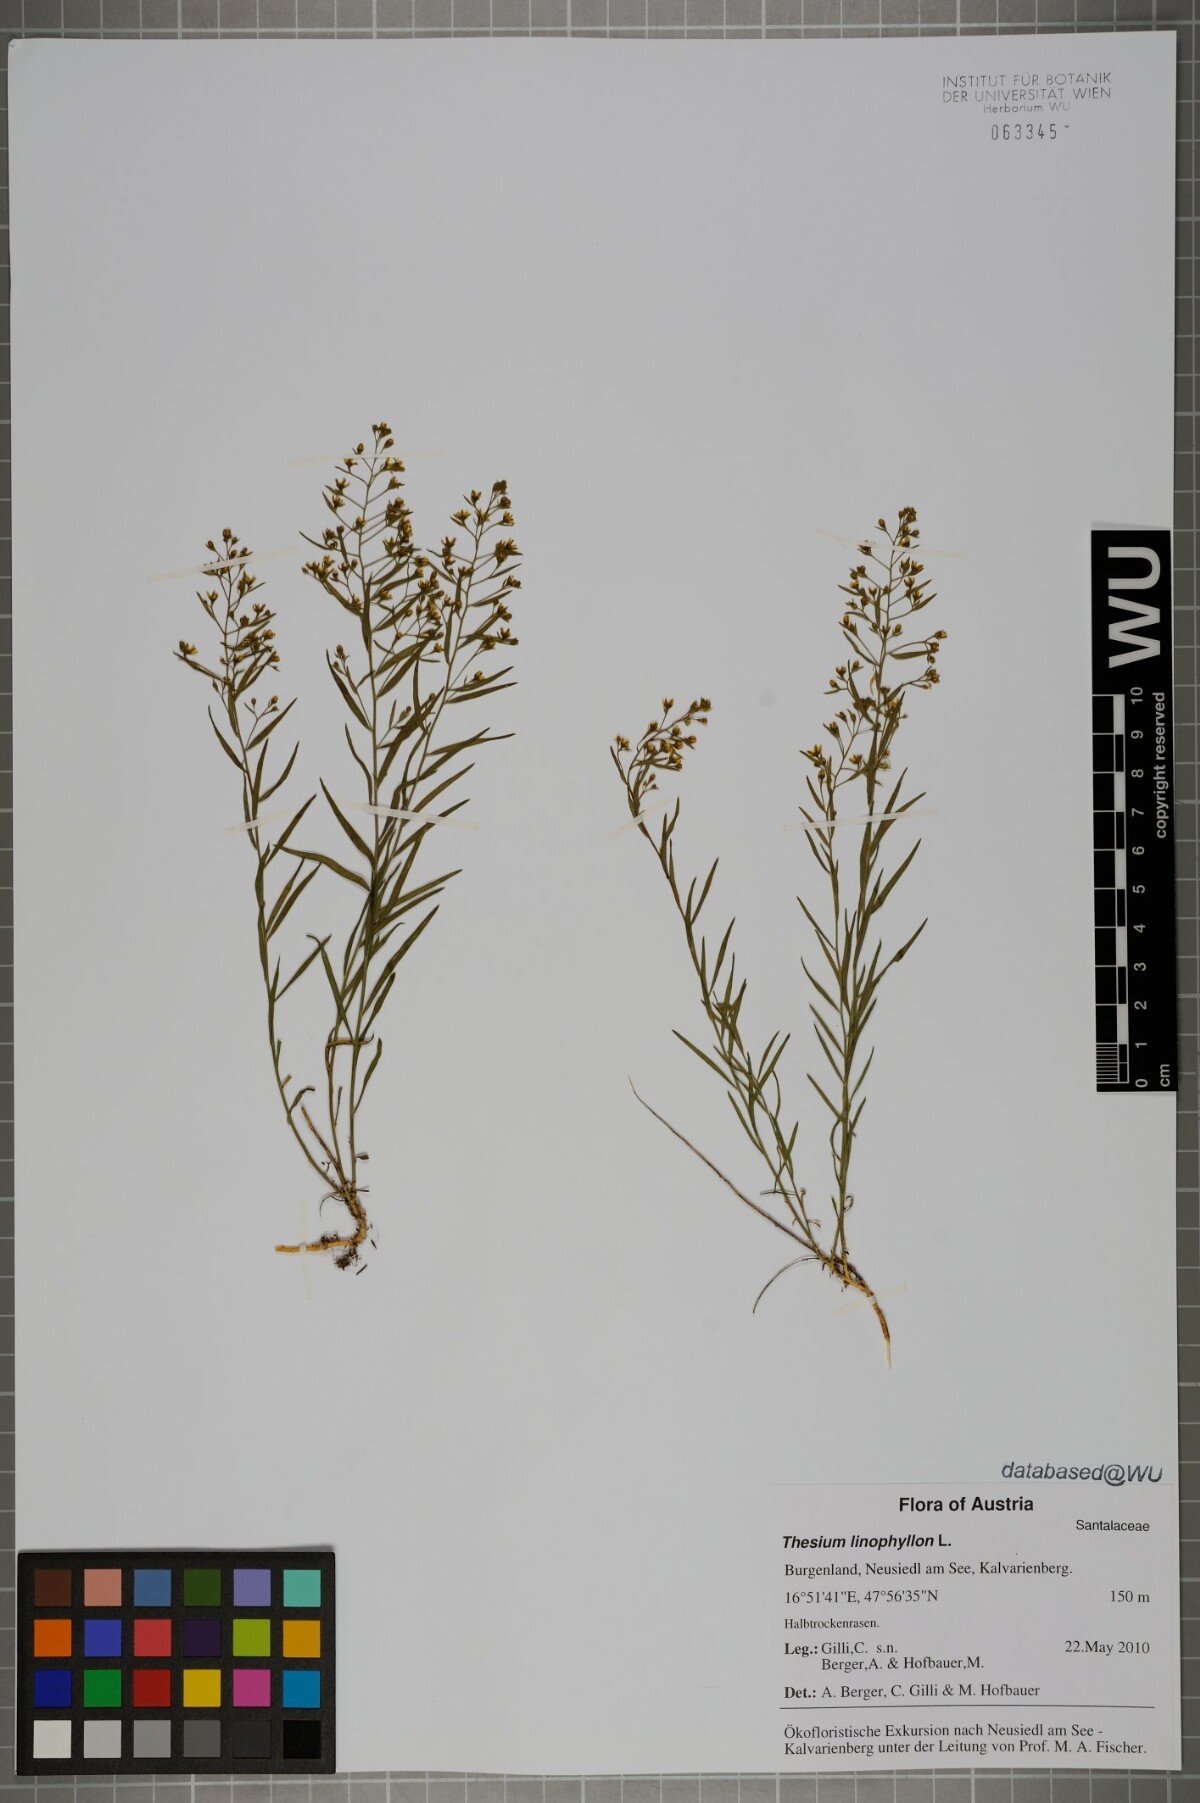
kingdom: Plantae
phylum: Tracheophyta
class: Magnoliopsida
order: Santalales
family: Thesiaceae
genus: Thesium
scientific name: Thesium linophyllon
